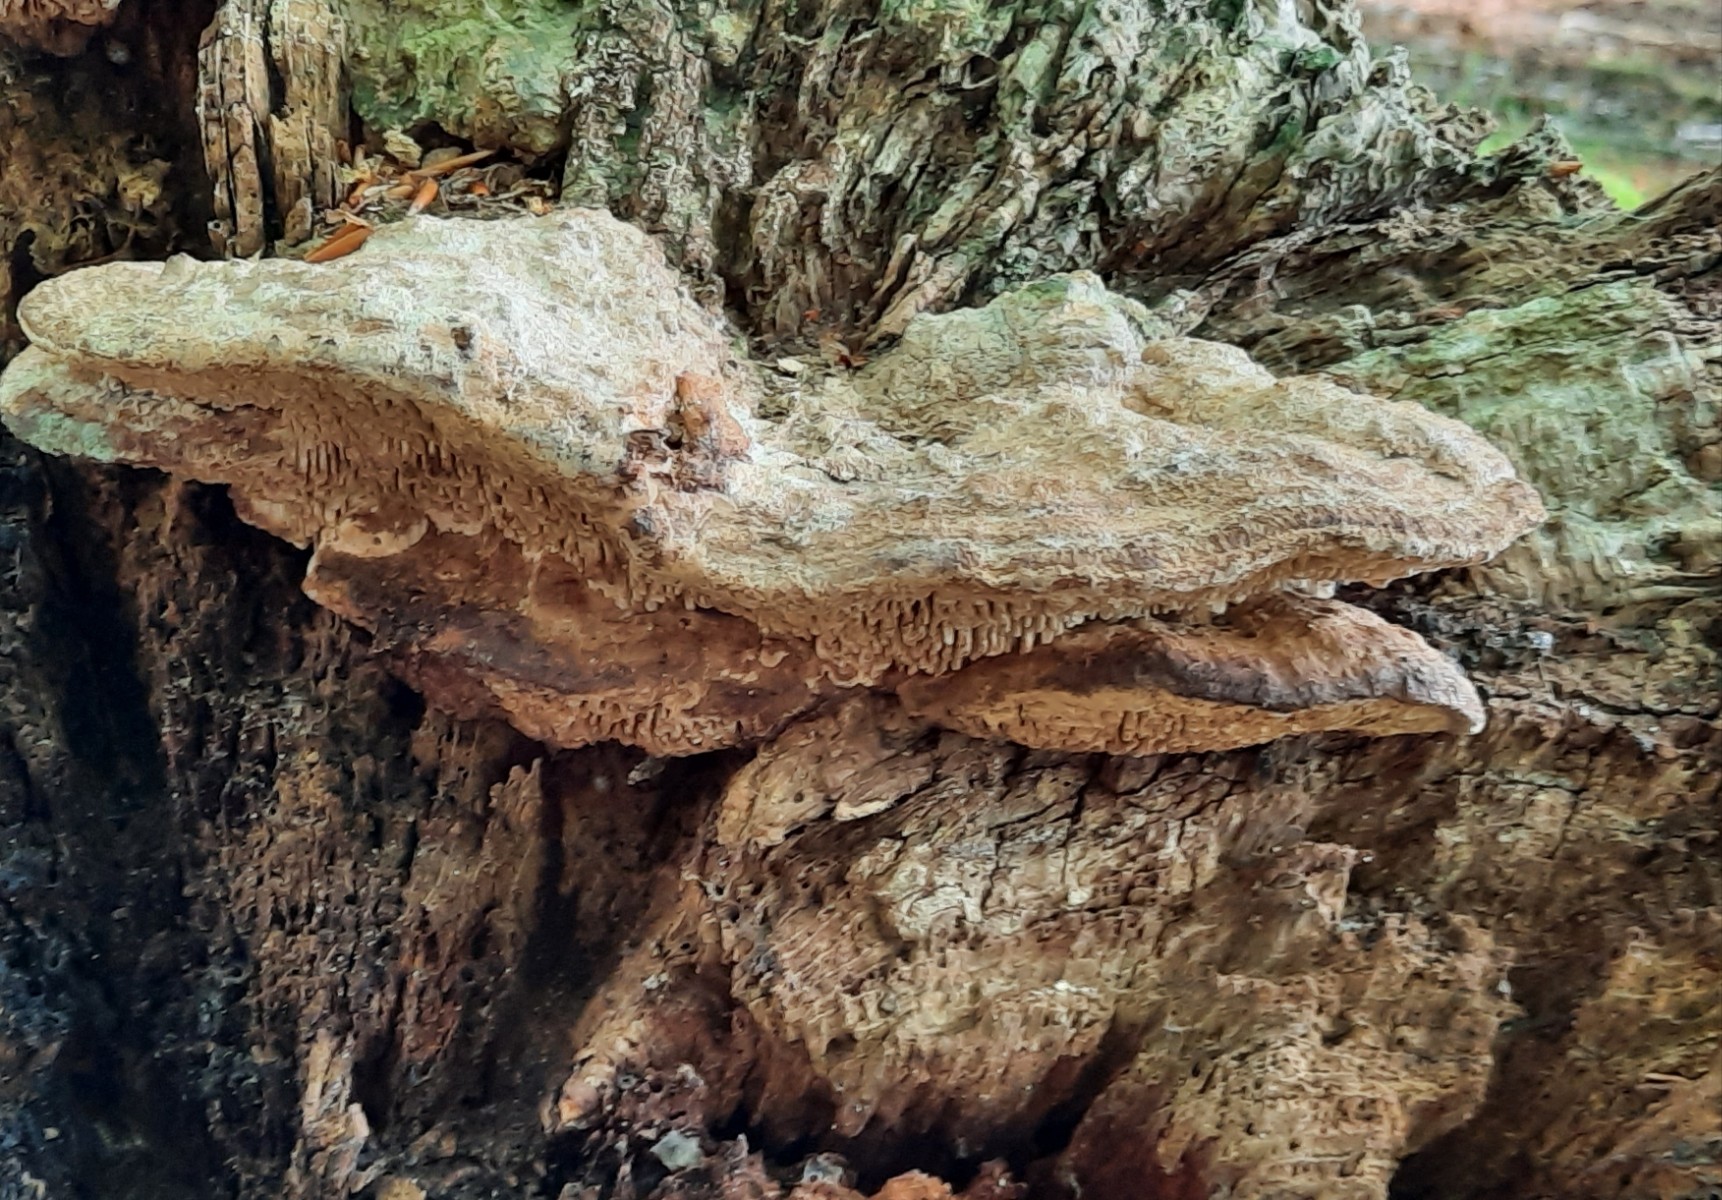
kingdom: Fungi
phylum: Basidiomycota
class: Agaricomycetes
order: Polyporales
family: Fomitopsidaceae
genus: Daedalea
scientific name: Daedalea quercina
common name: ege-labyrintsvamp
